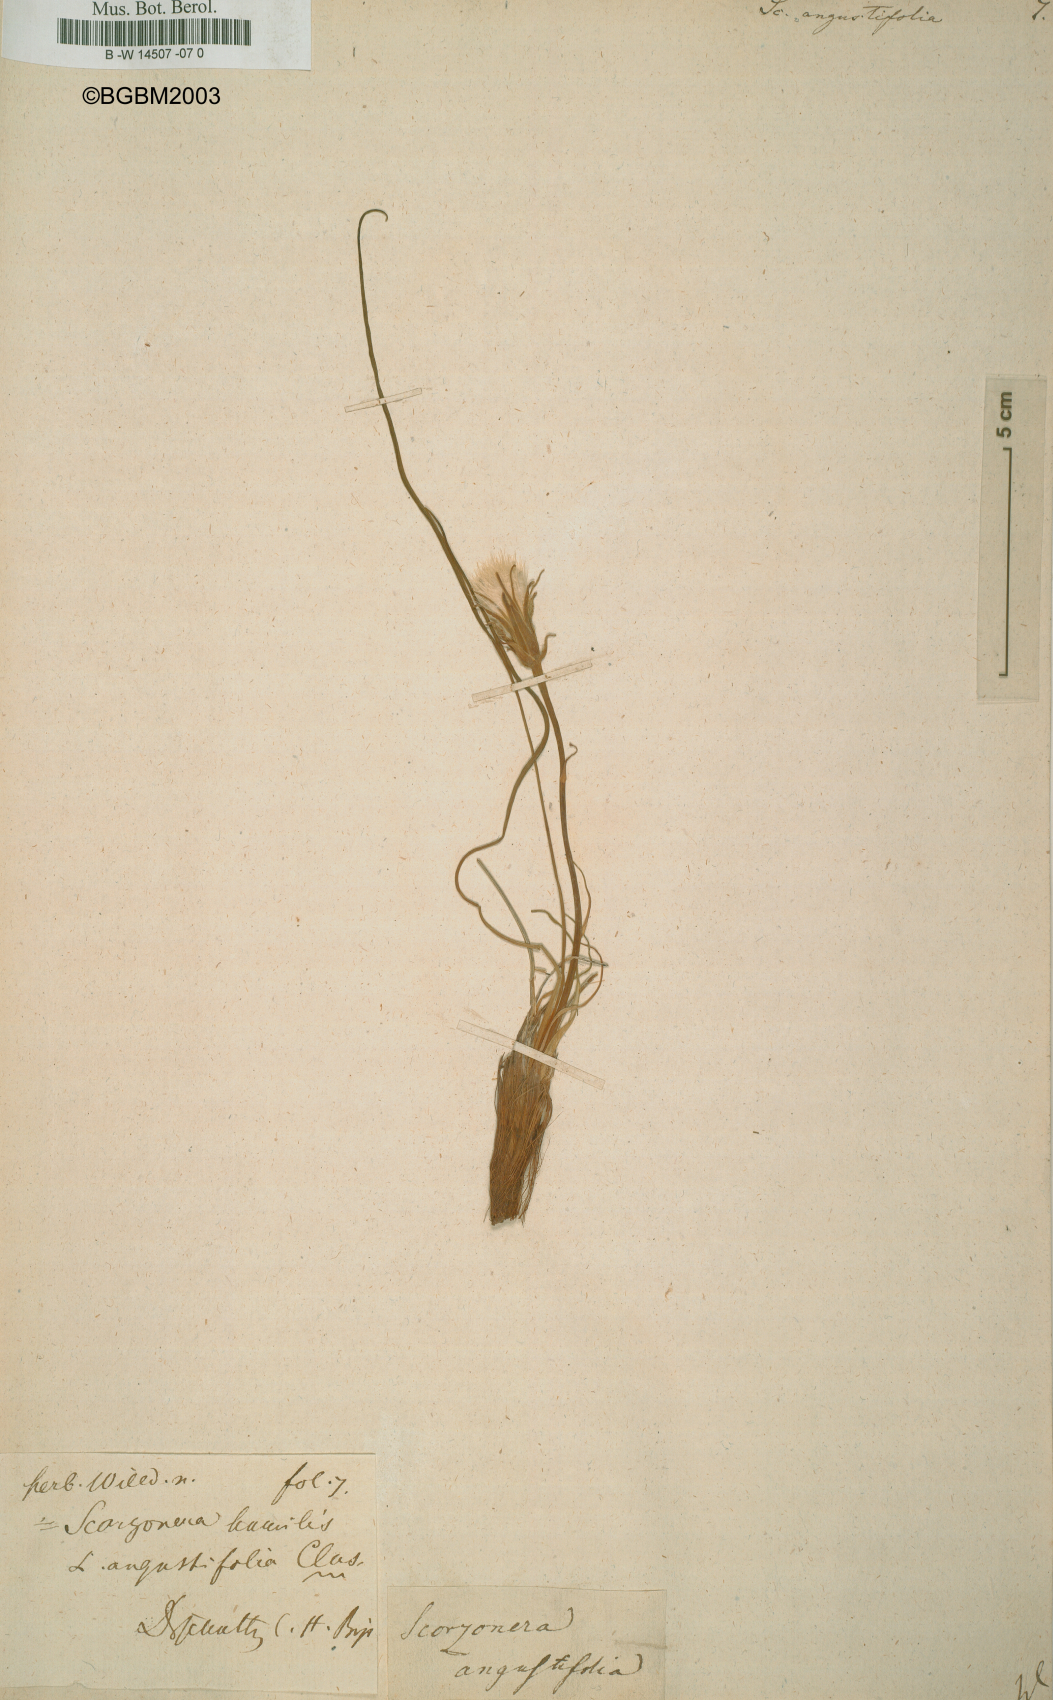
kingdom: Plantae
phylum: Tracheophyta
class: Magnoliopsida
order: Asterales
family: Asteraceae
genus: Scorzonera
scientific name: Scorzonera angustifolia
